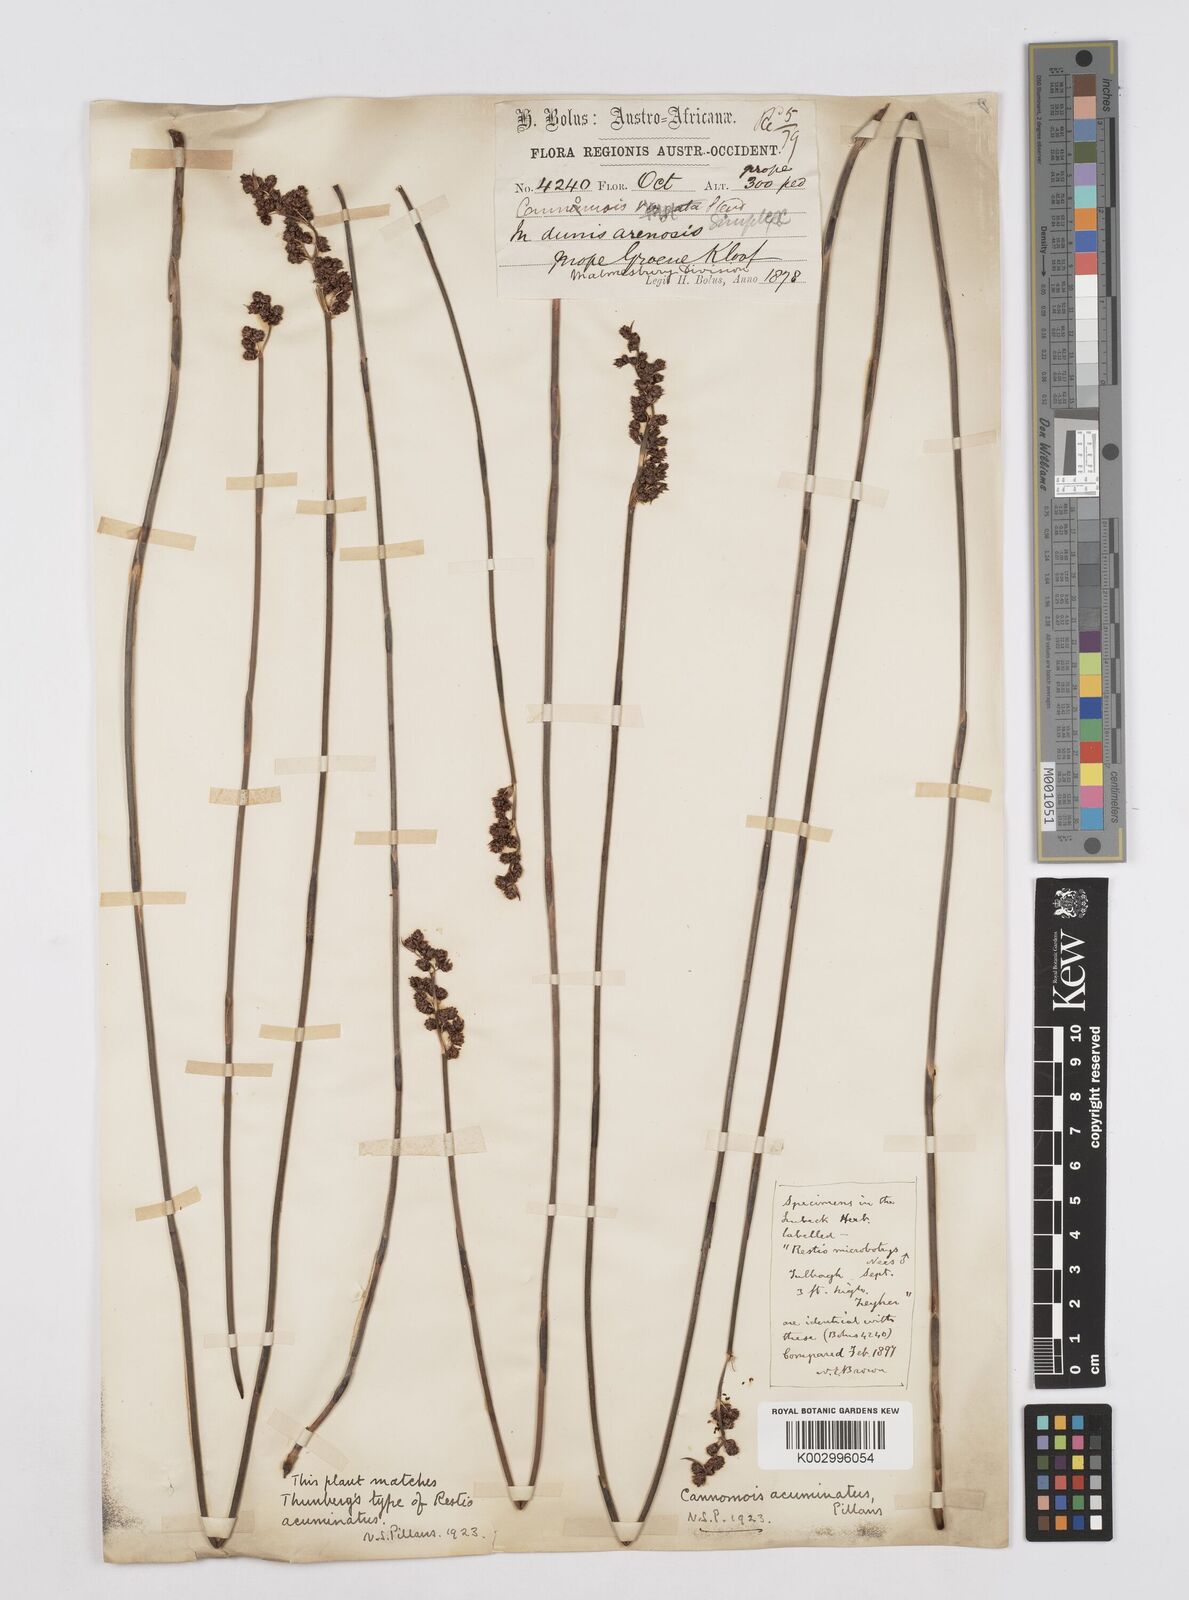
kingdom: Plantae
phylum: Tracheophyta
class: Liliopsida
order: Poales
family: Restionaceae
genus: Cannomois
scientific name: Cannomois parviflora
